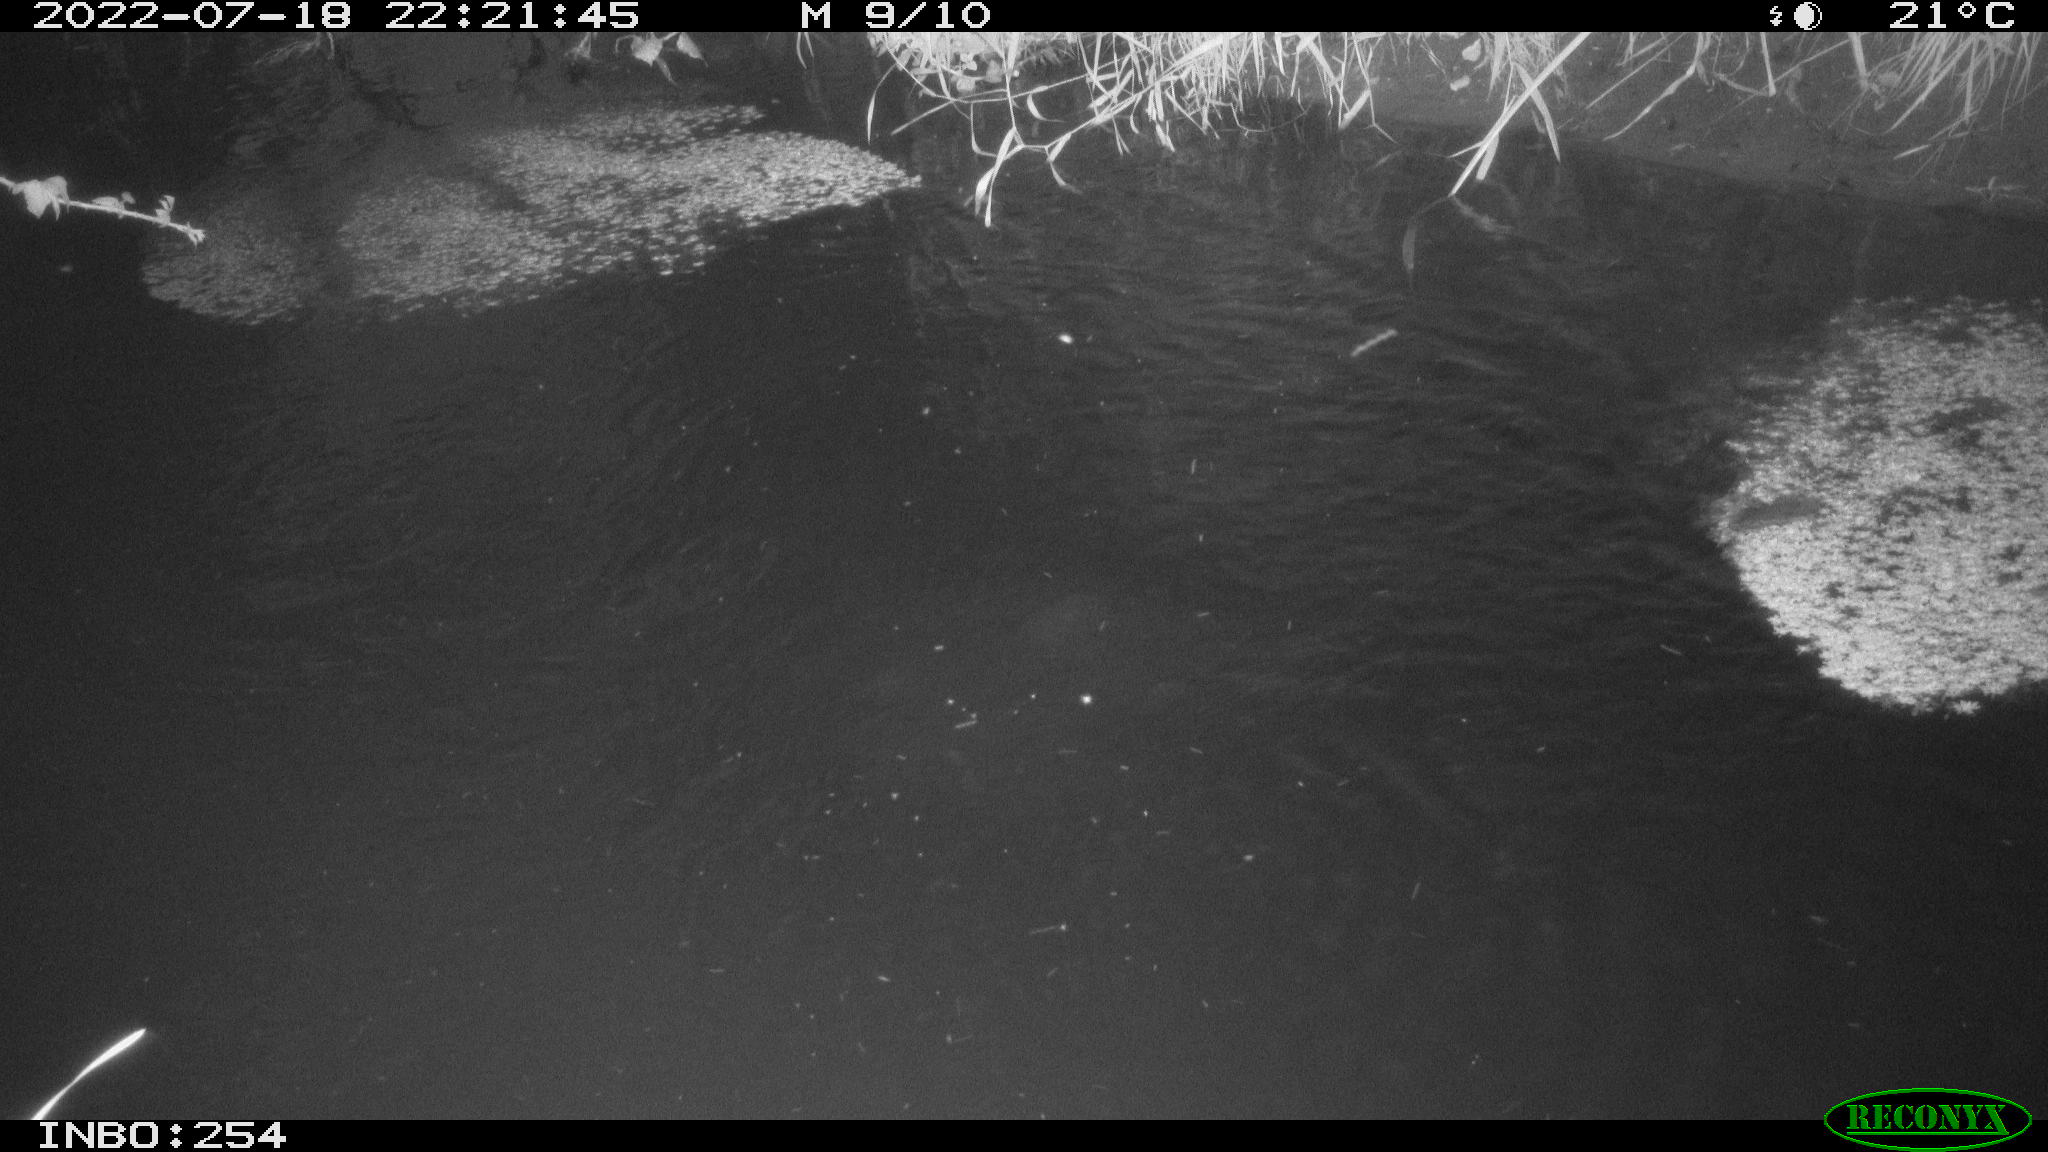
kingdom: Animalia
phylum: Chordata
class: Aves
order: Anseriformes
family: Anatidae
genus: Anas
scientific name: Anas platyrhynchos
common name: Mallard
